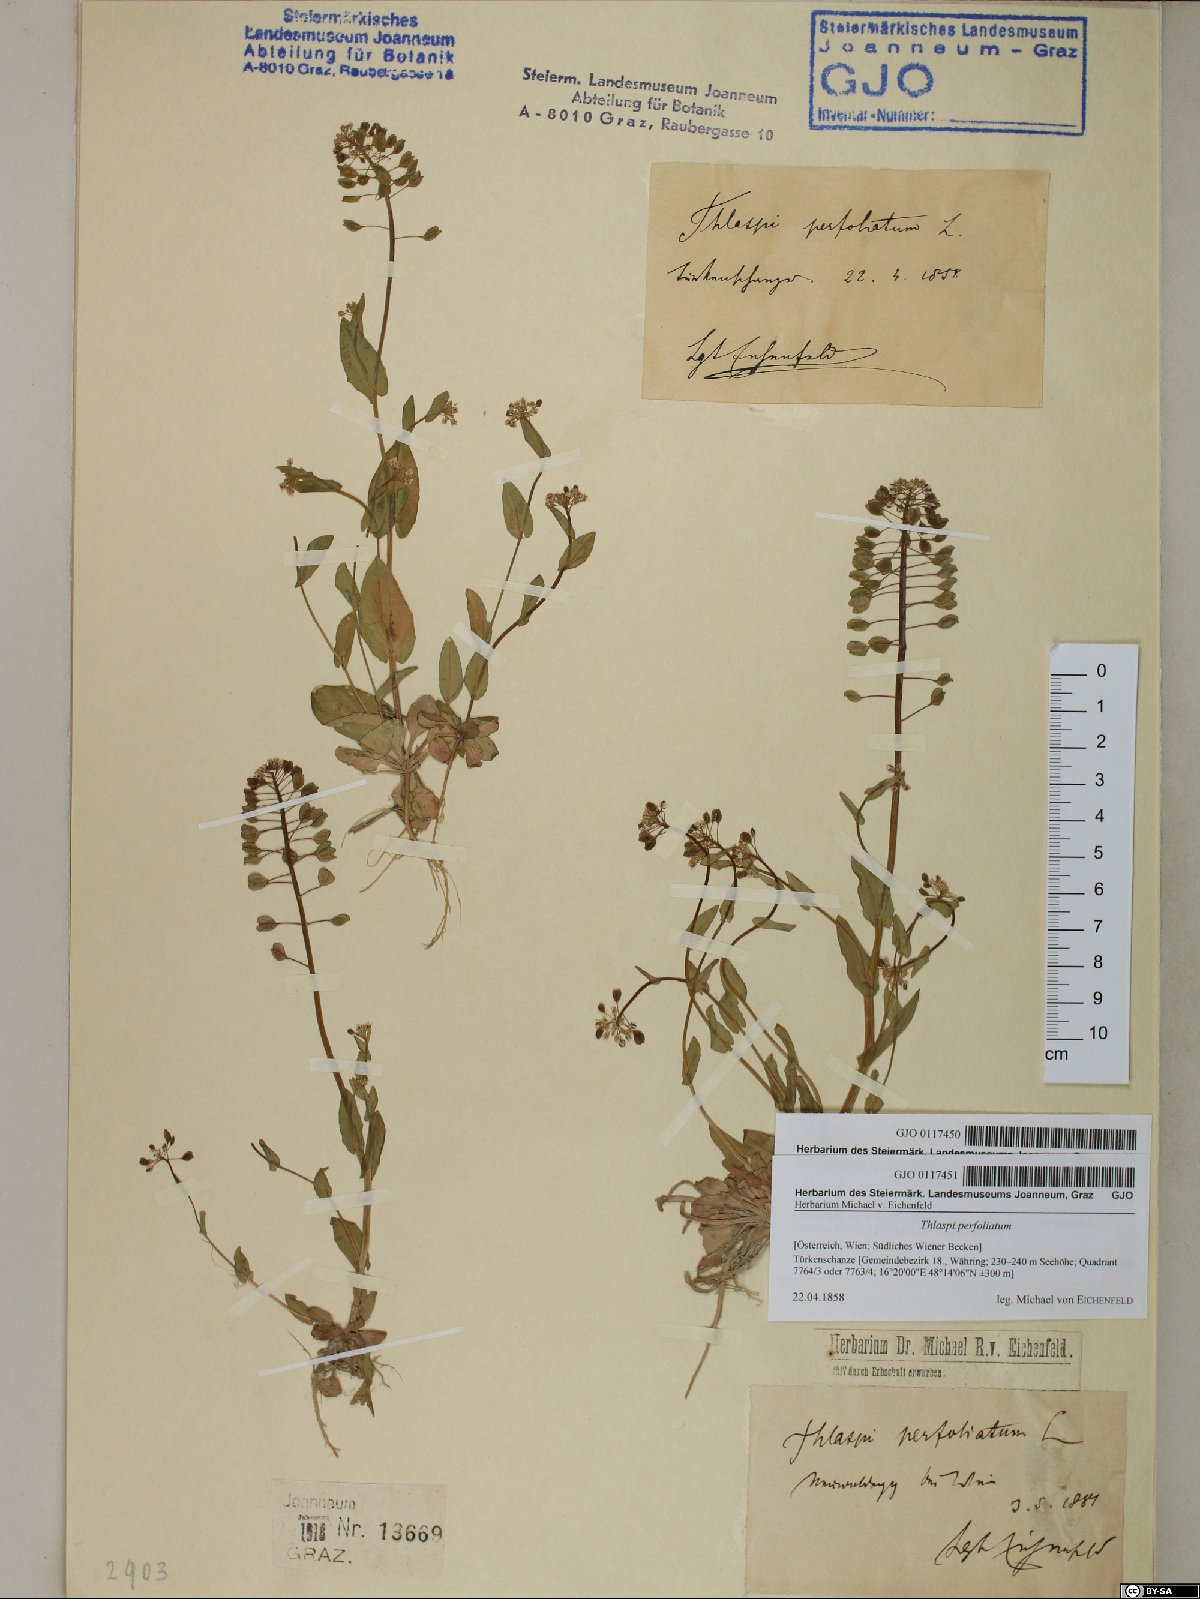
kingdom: Plantae
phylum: Tracheophyta
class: Magnoliopsida
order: Brassicales
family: Brassicaceae
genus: Noccaea
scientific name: Noccaea perfoliata
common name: Perfoliate pennycress
